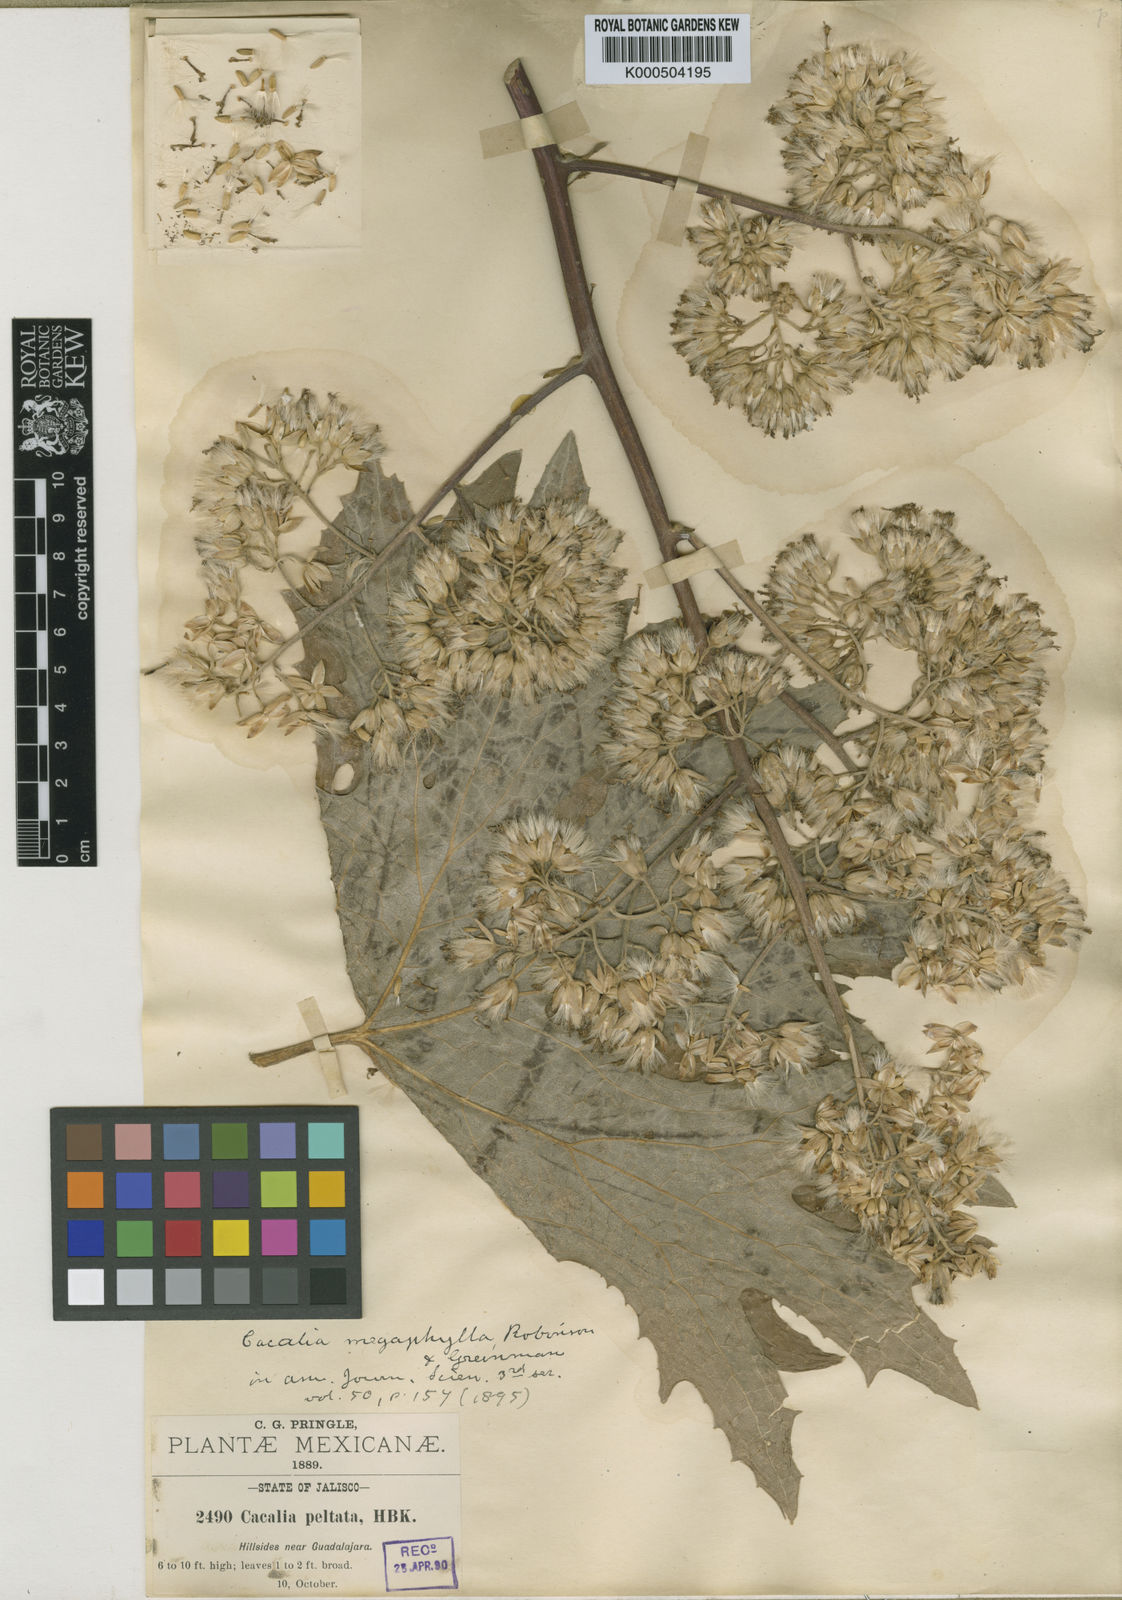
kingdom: Plantae
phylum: Tracheophyta
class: Magnoliopsida
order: Asterales
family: Asteraceae
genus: Psacalium
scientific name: Psacalium megaphyllum
